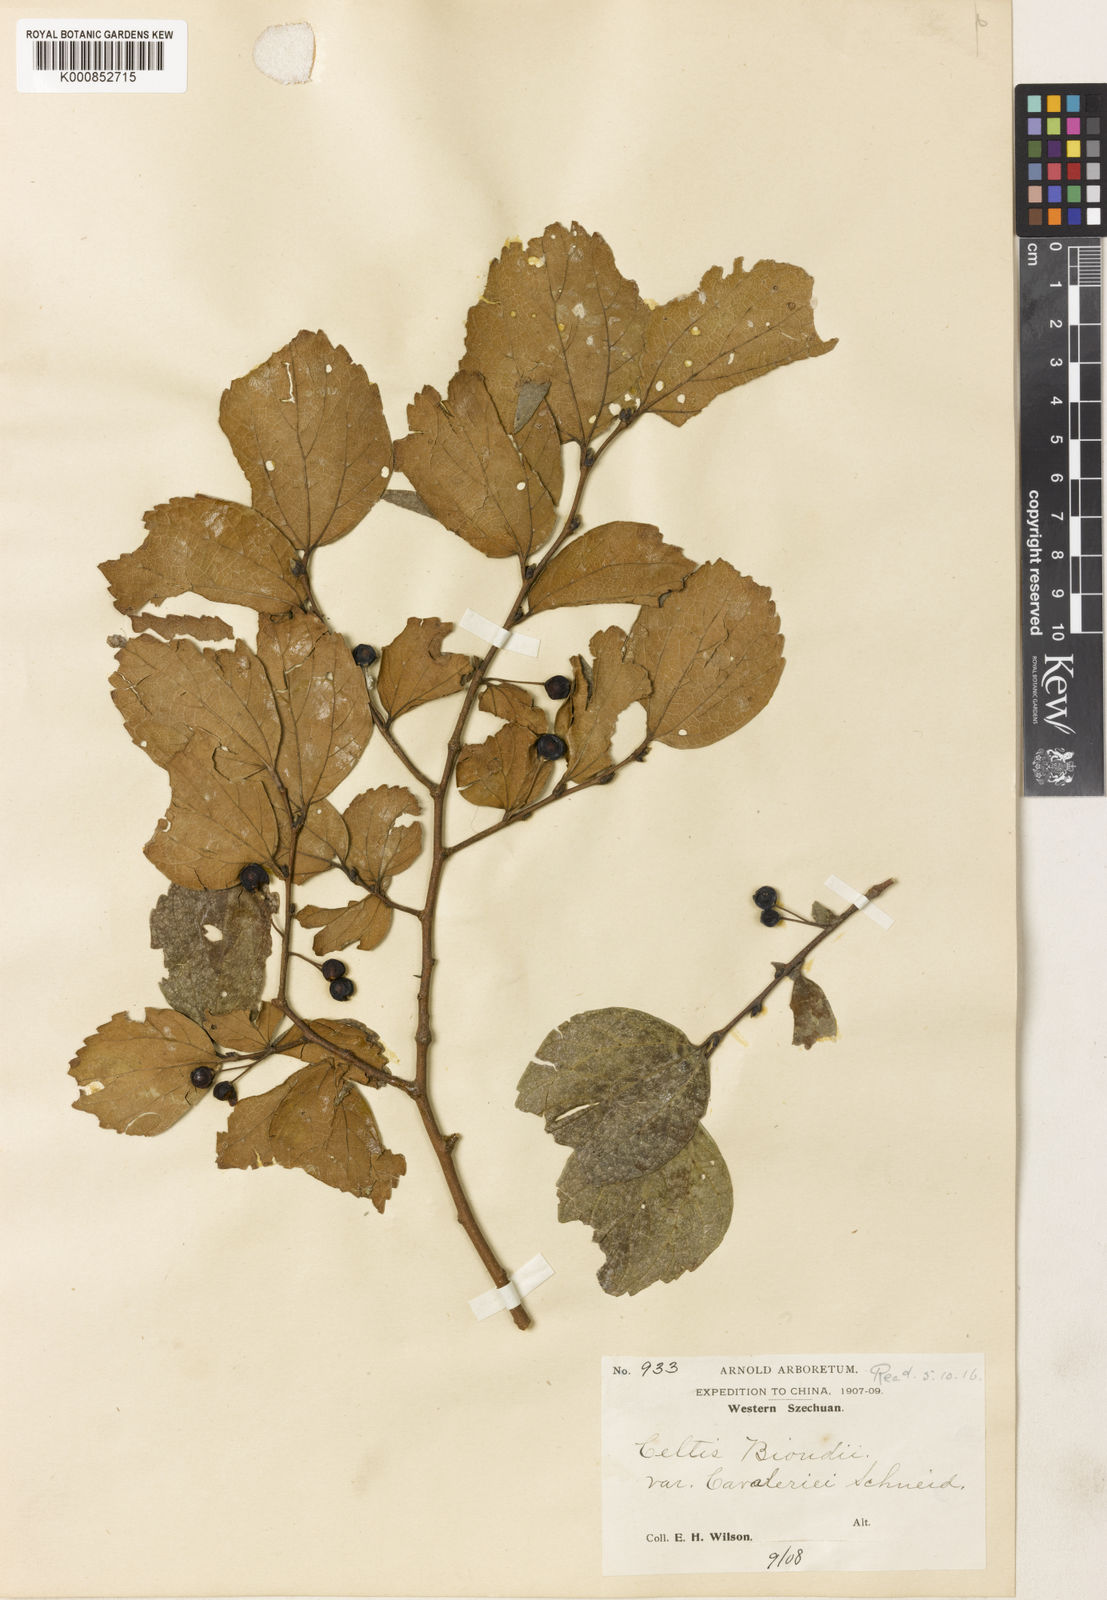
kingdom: Plantae
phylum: Tracheophyta
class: Magnoliopsida
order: Rosales
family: Cannabaceae
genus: Celtis
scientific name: Celtis biondii
